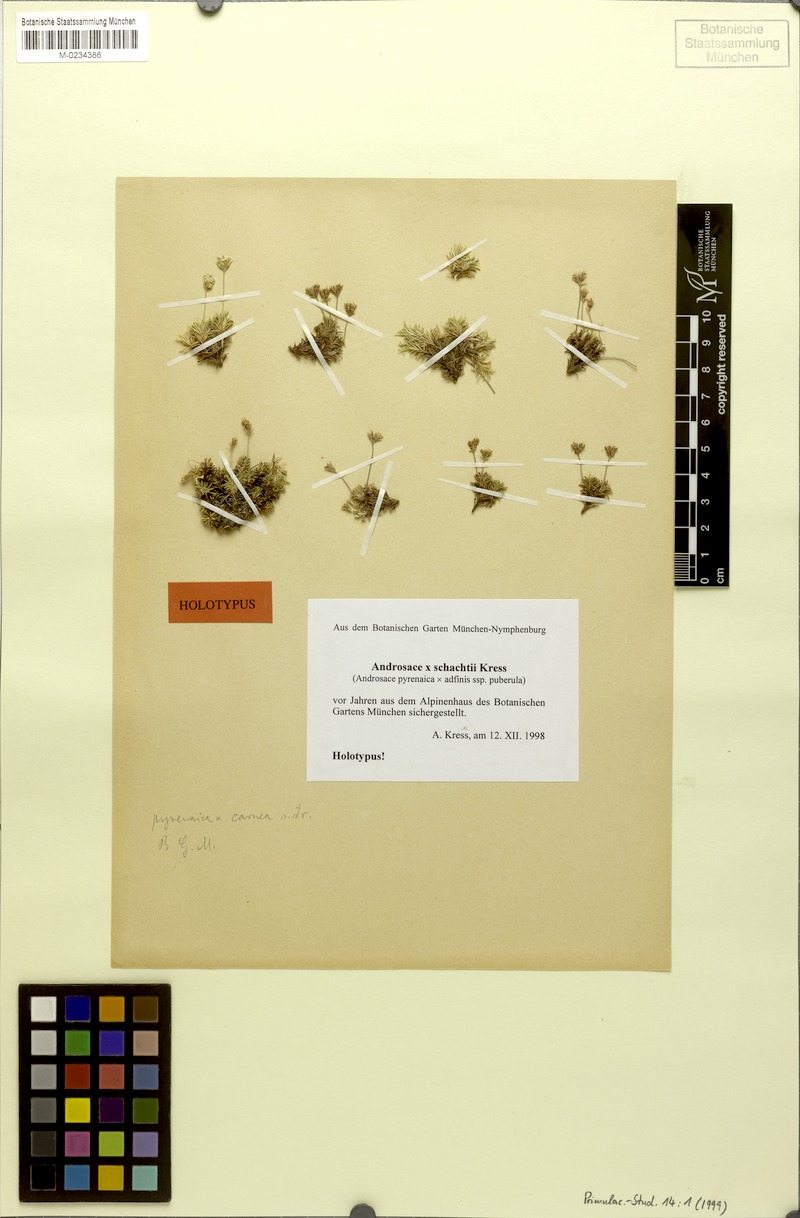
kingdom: Plantae
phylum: Tracheophyta
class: Magnoliopsida
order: Ericales
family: Primulaceae
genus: Androsace
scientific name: Androsace schachtii
